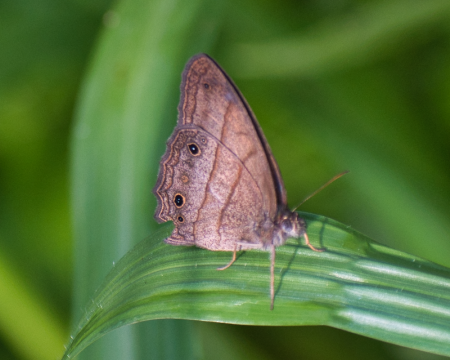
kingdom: Animalia
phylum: Arthropoda
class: Insecta
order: Lepidoptera
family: Nymphalidae
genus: Yphthimoides
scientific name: Yphthimoides renata
